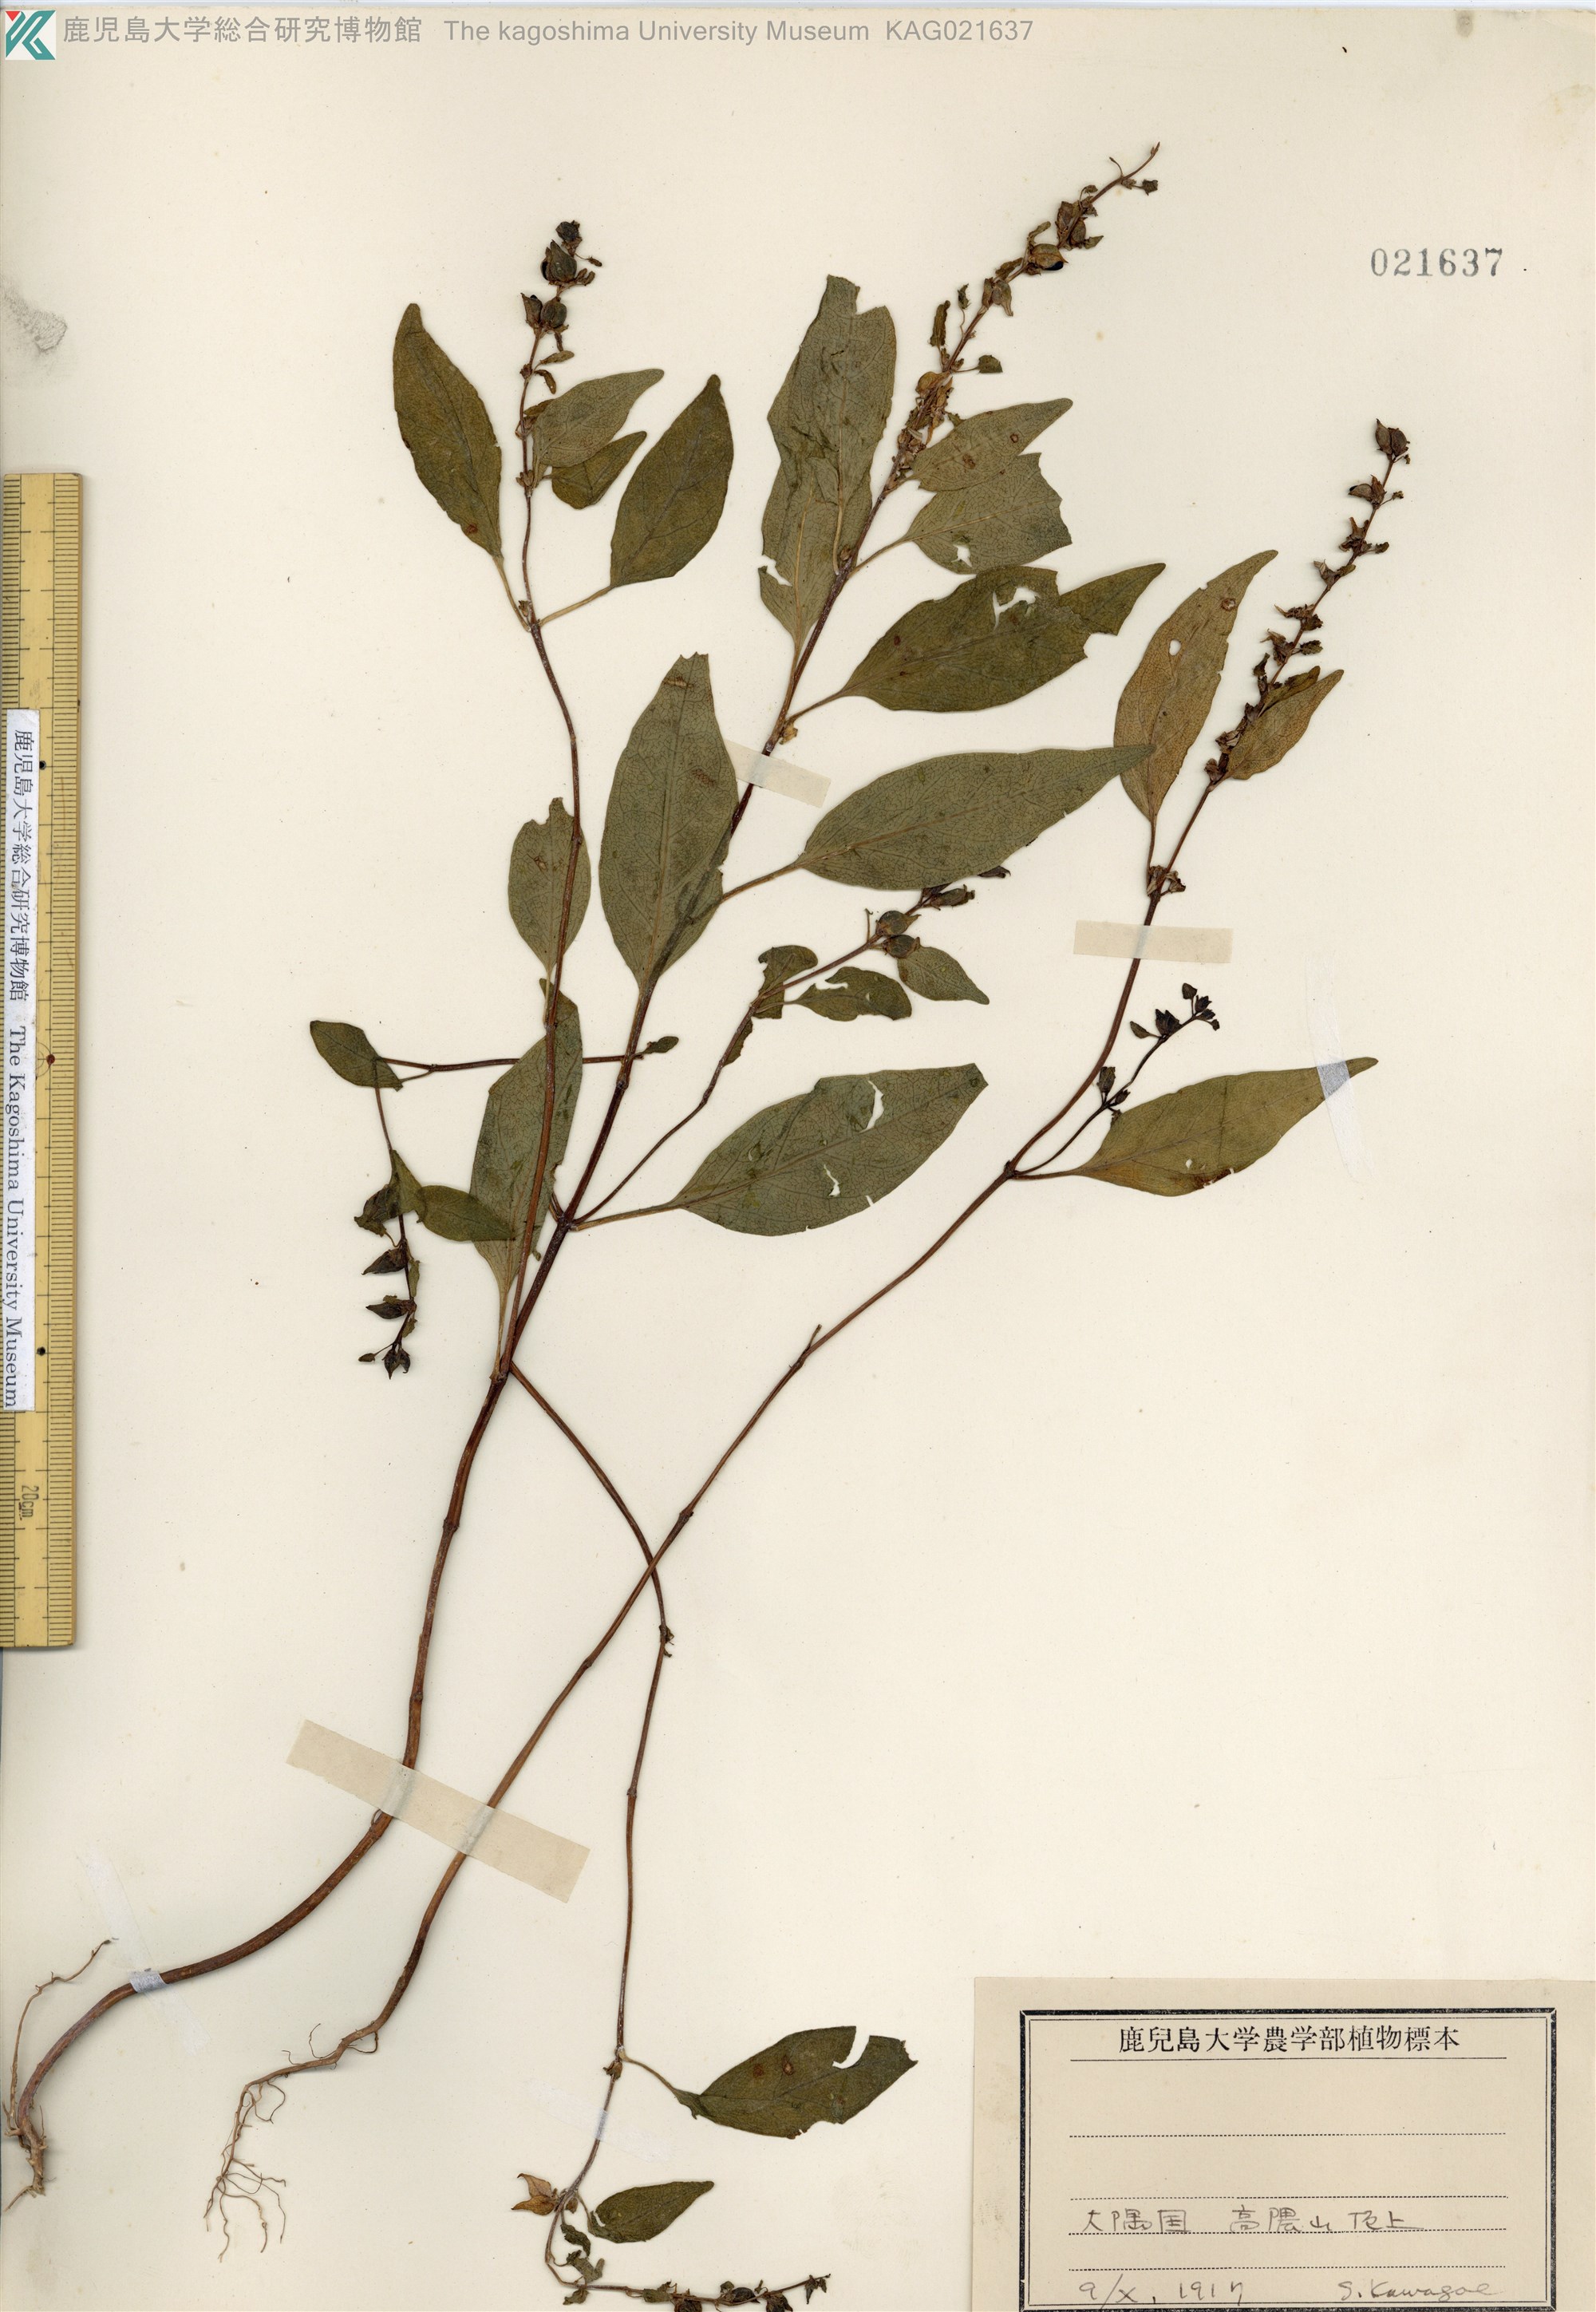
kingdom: Plantae
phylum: Tracheophyta
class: Magnoliopsida
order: Lamiales
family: Orobanchaceae
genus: Melampyrum
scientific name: Melampyrum laxum
